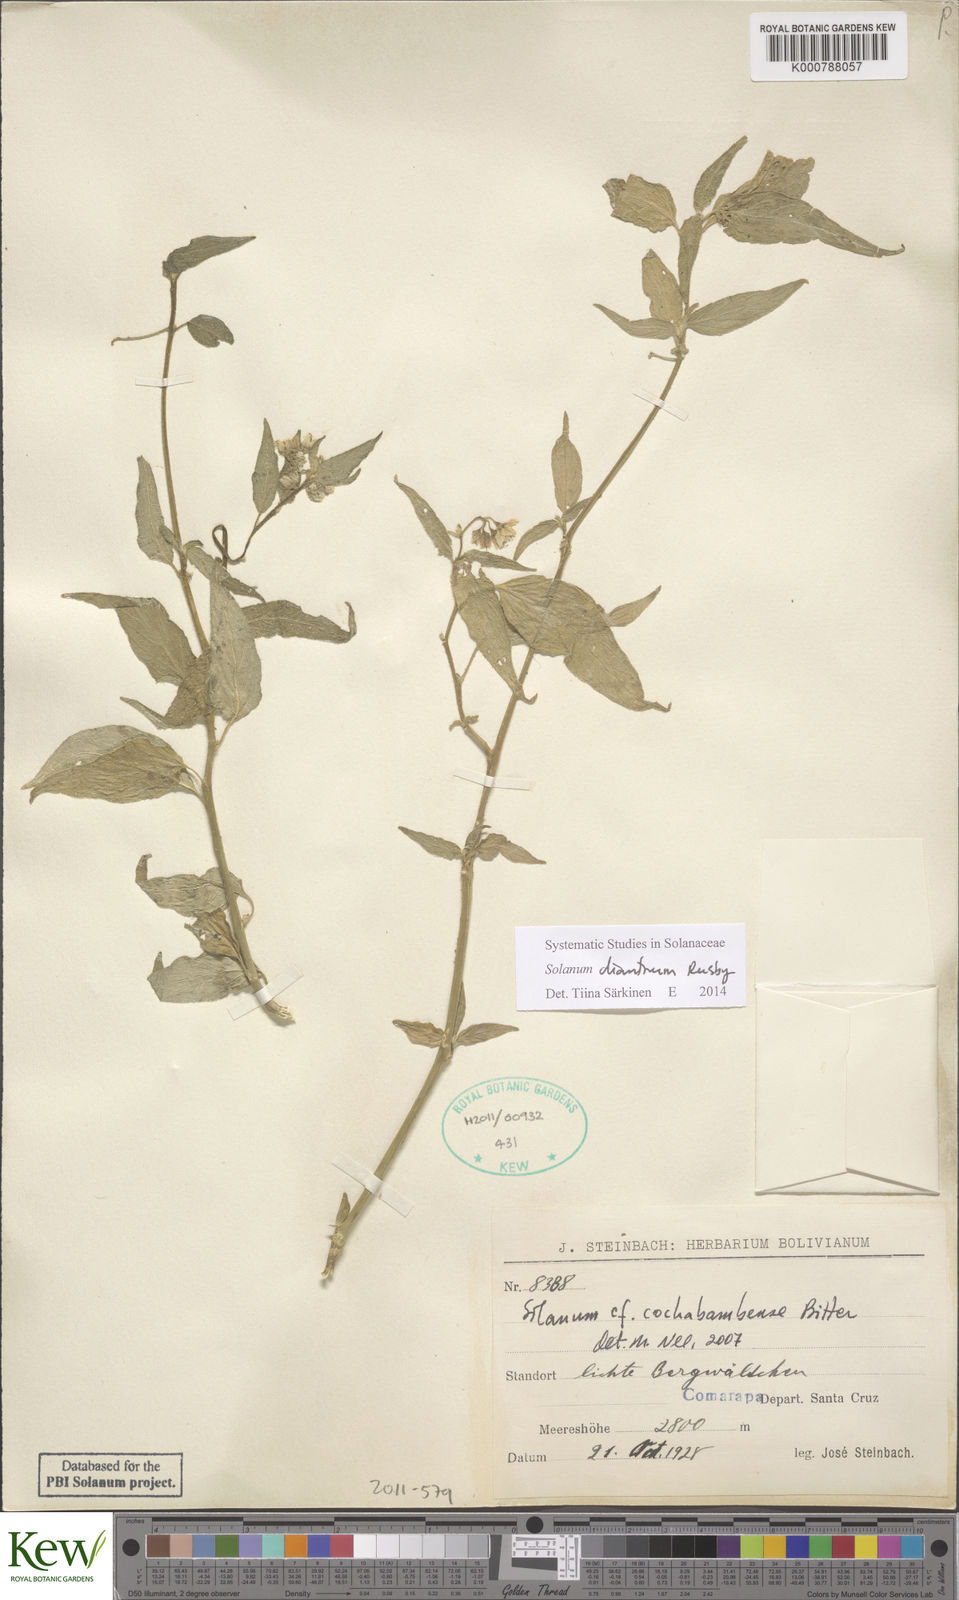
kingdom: Plantae
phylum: Tracheophyta
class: Magnoliopsida
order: Solanales
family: Solanaceae
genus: Solanum
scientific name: Solanum dianthum
